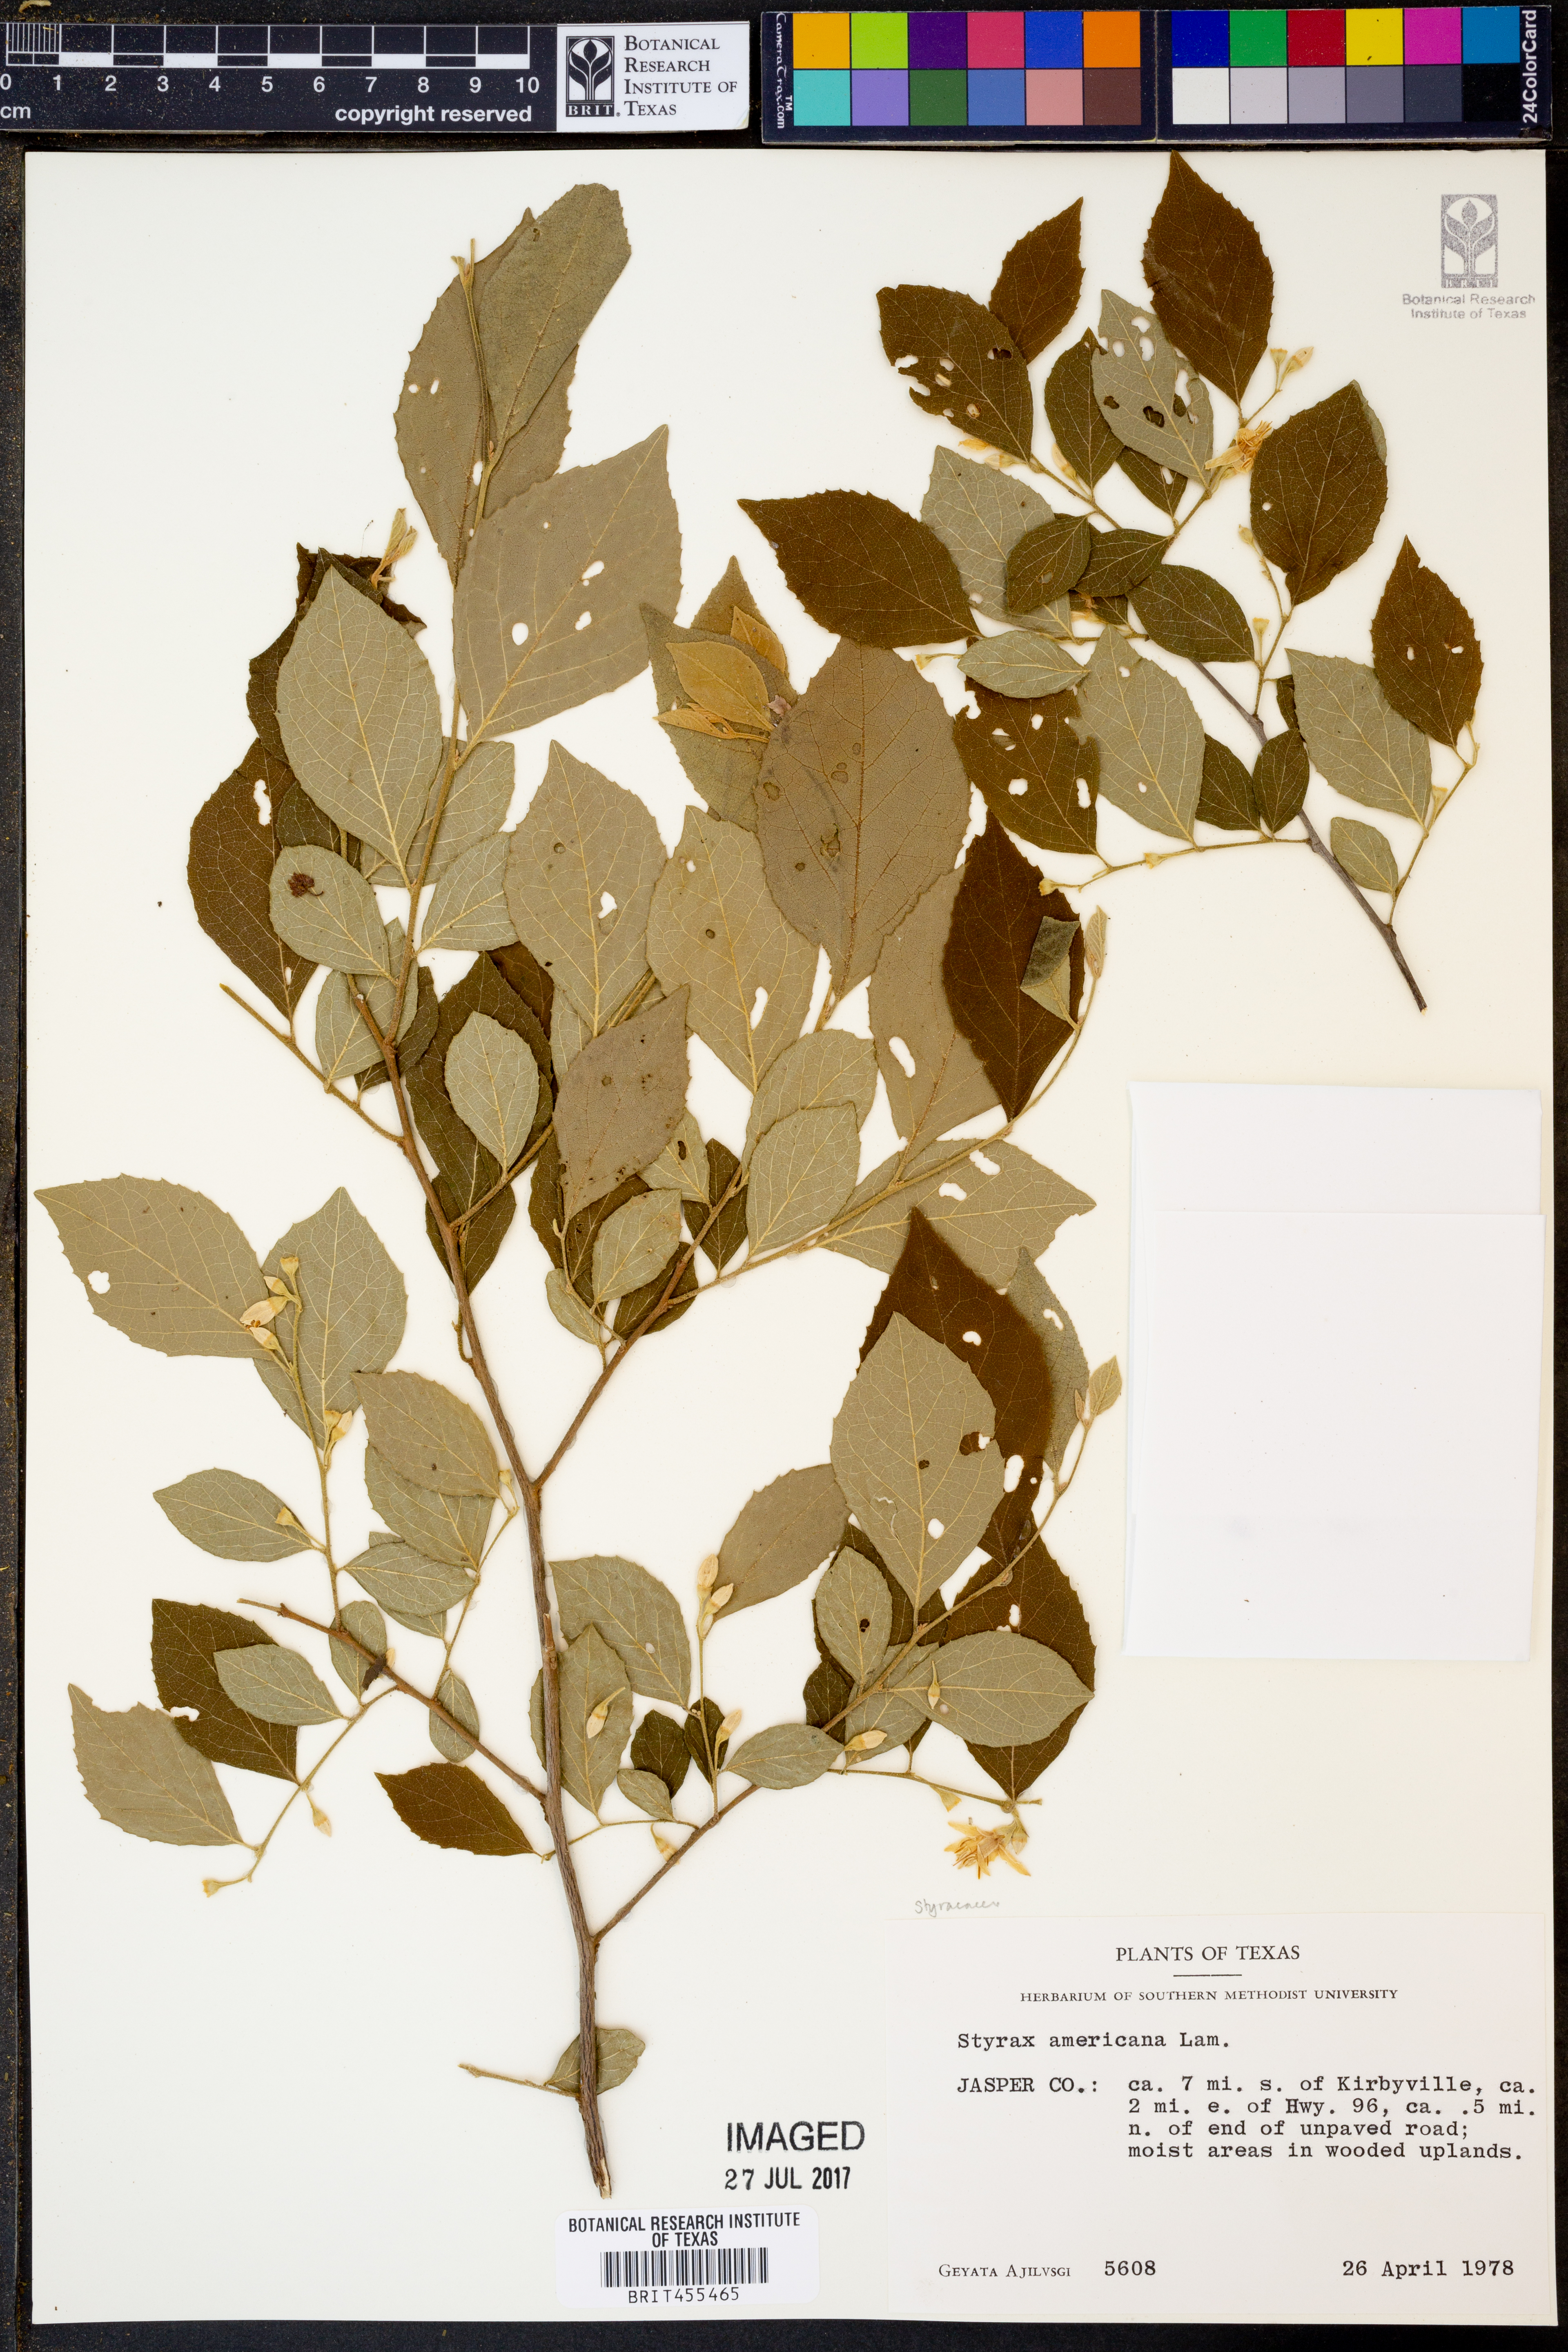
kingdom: Plantae
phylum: Tracheophyta
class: Magnoliopsida
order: Ericales
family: Styracaceae
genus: Styrax
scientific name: Styrax americanus
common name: American snowbell
